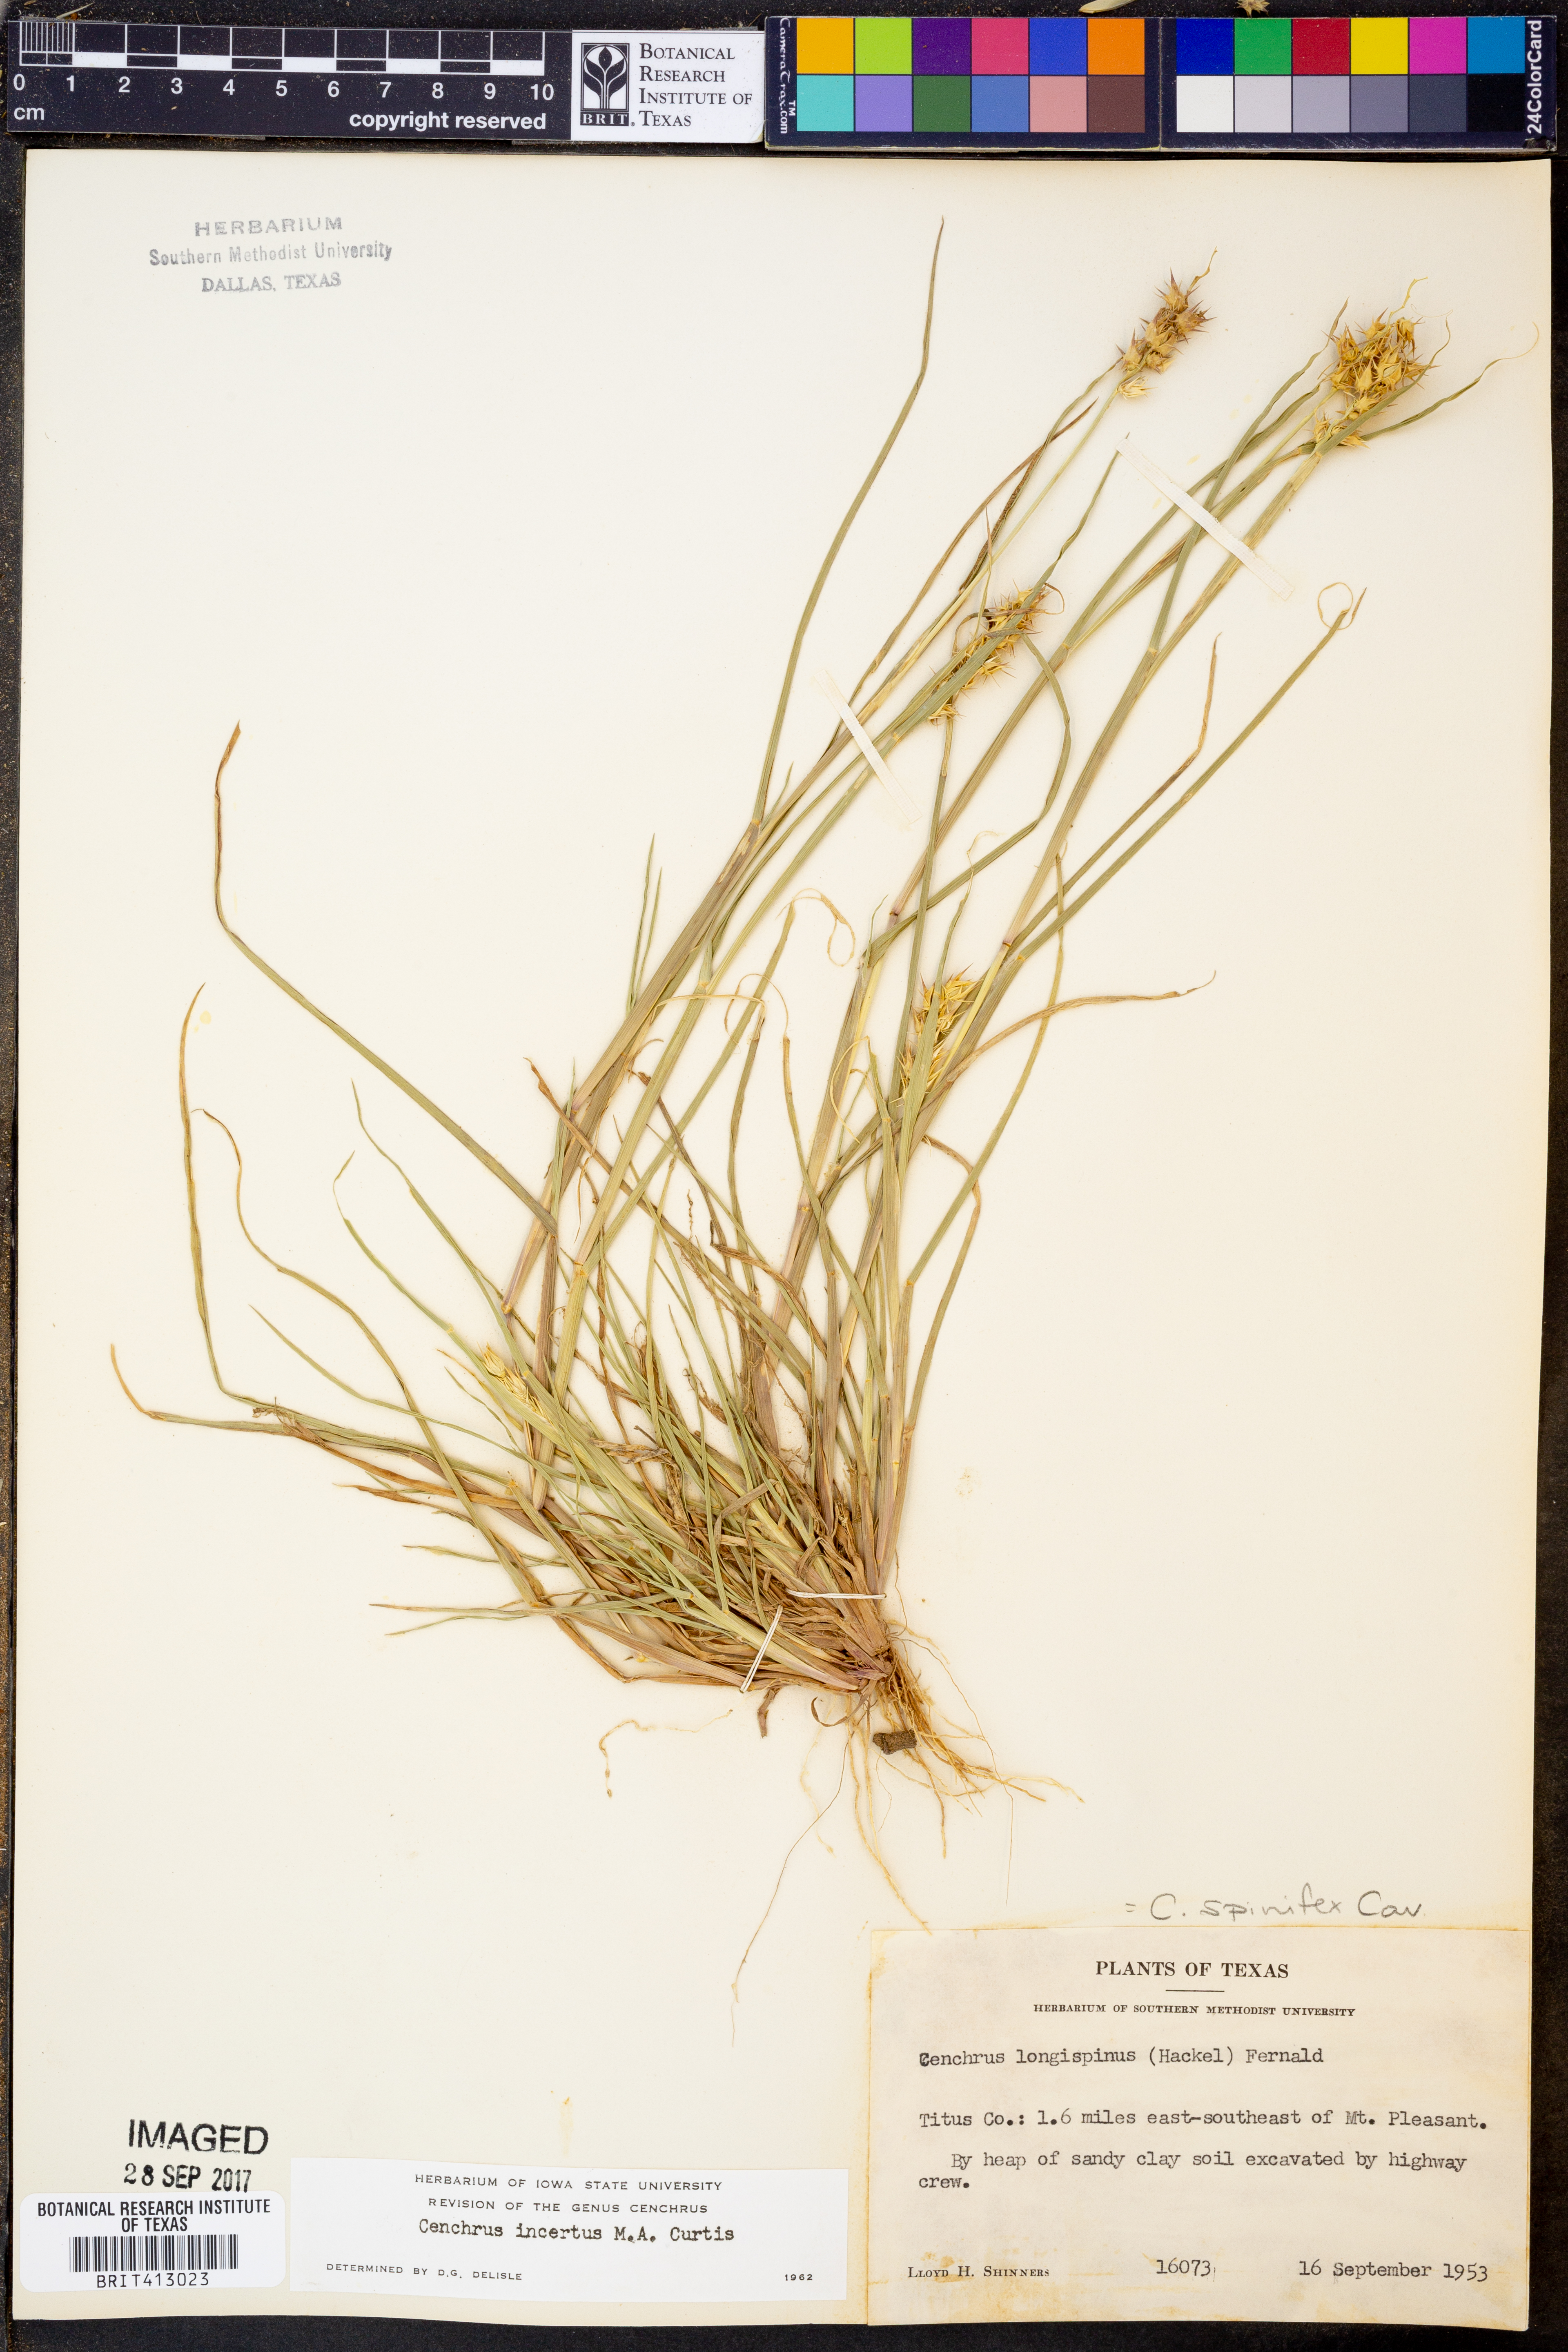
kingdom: Plantae
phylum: Tracheophyta
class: Liliopsida
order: Poales
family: Poaceae
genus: Cenchrus
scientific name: Cenchrus spinifex
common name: Coast sandbur
